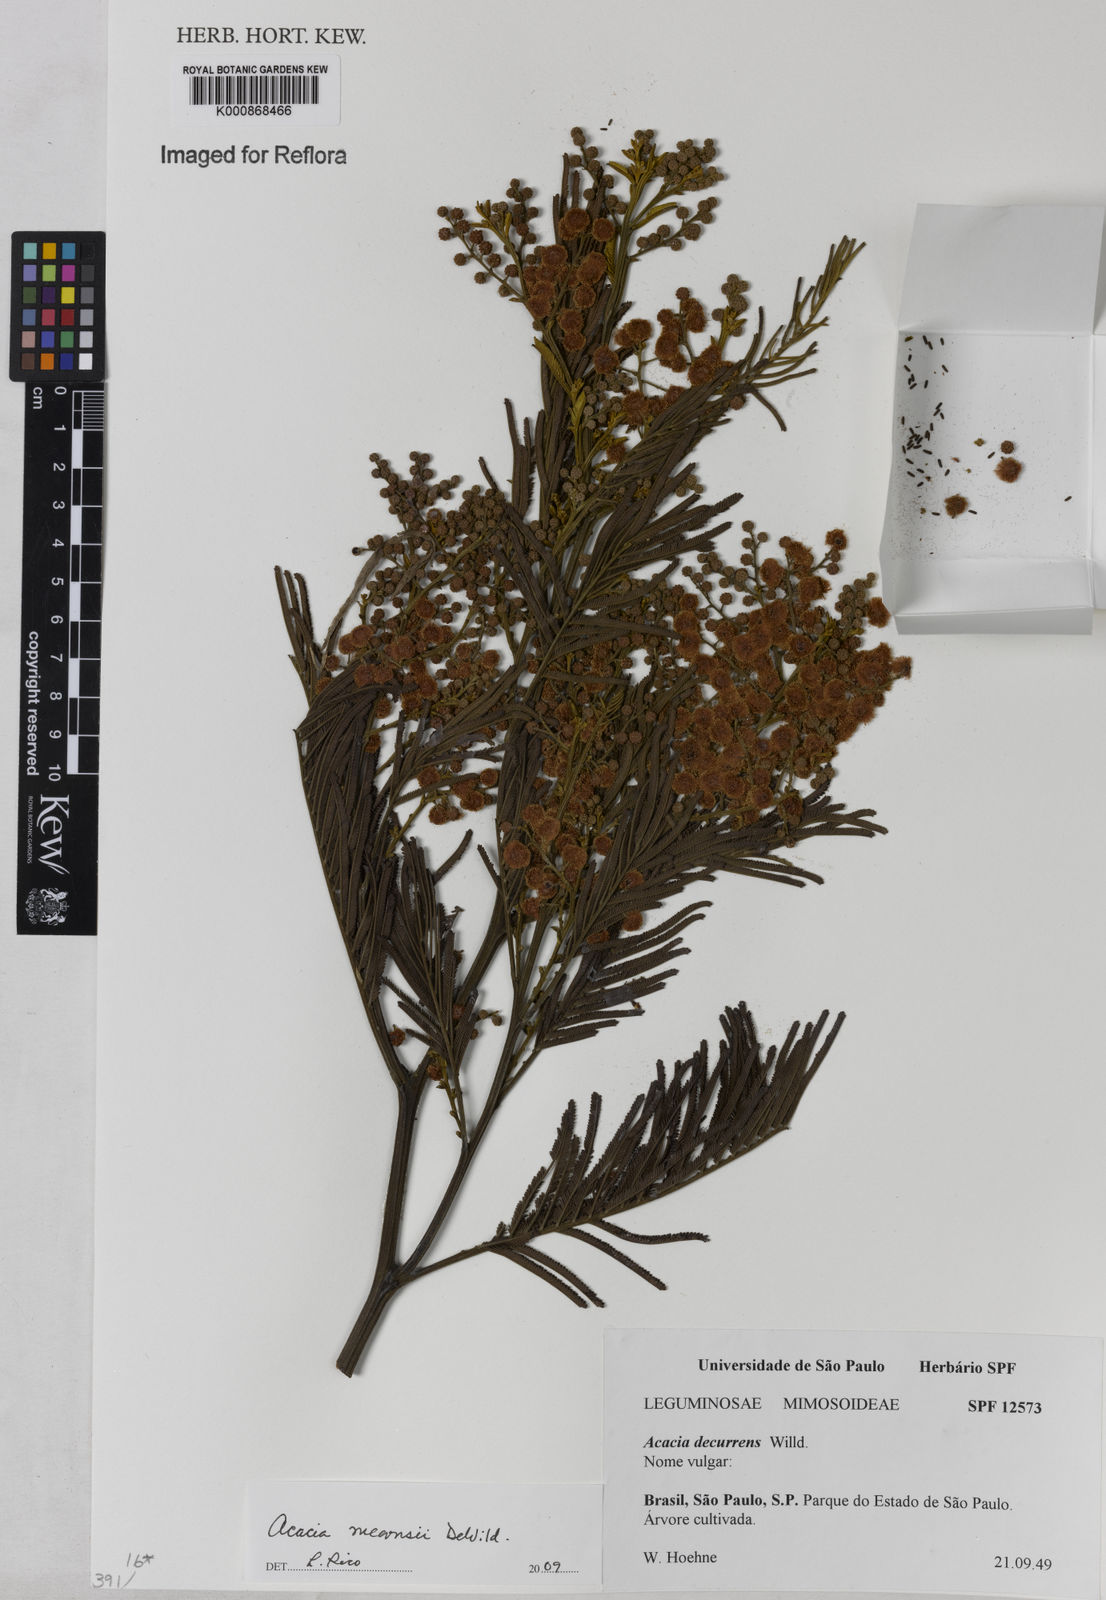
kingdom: Plantae
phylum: Tracheophyta
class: Magnoliopsida
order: Fabales
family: Fabaceae
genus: Acacia
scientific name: Acacia mearnsii
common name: Black wattle
